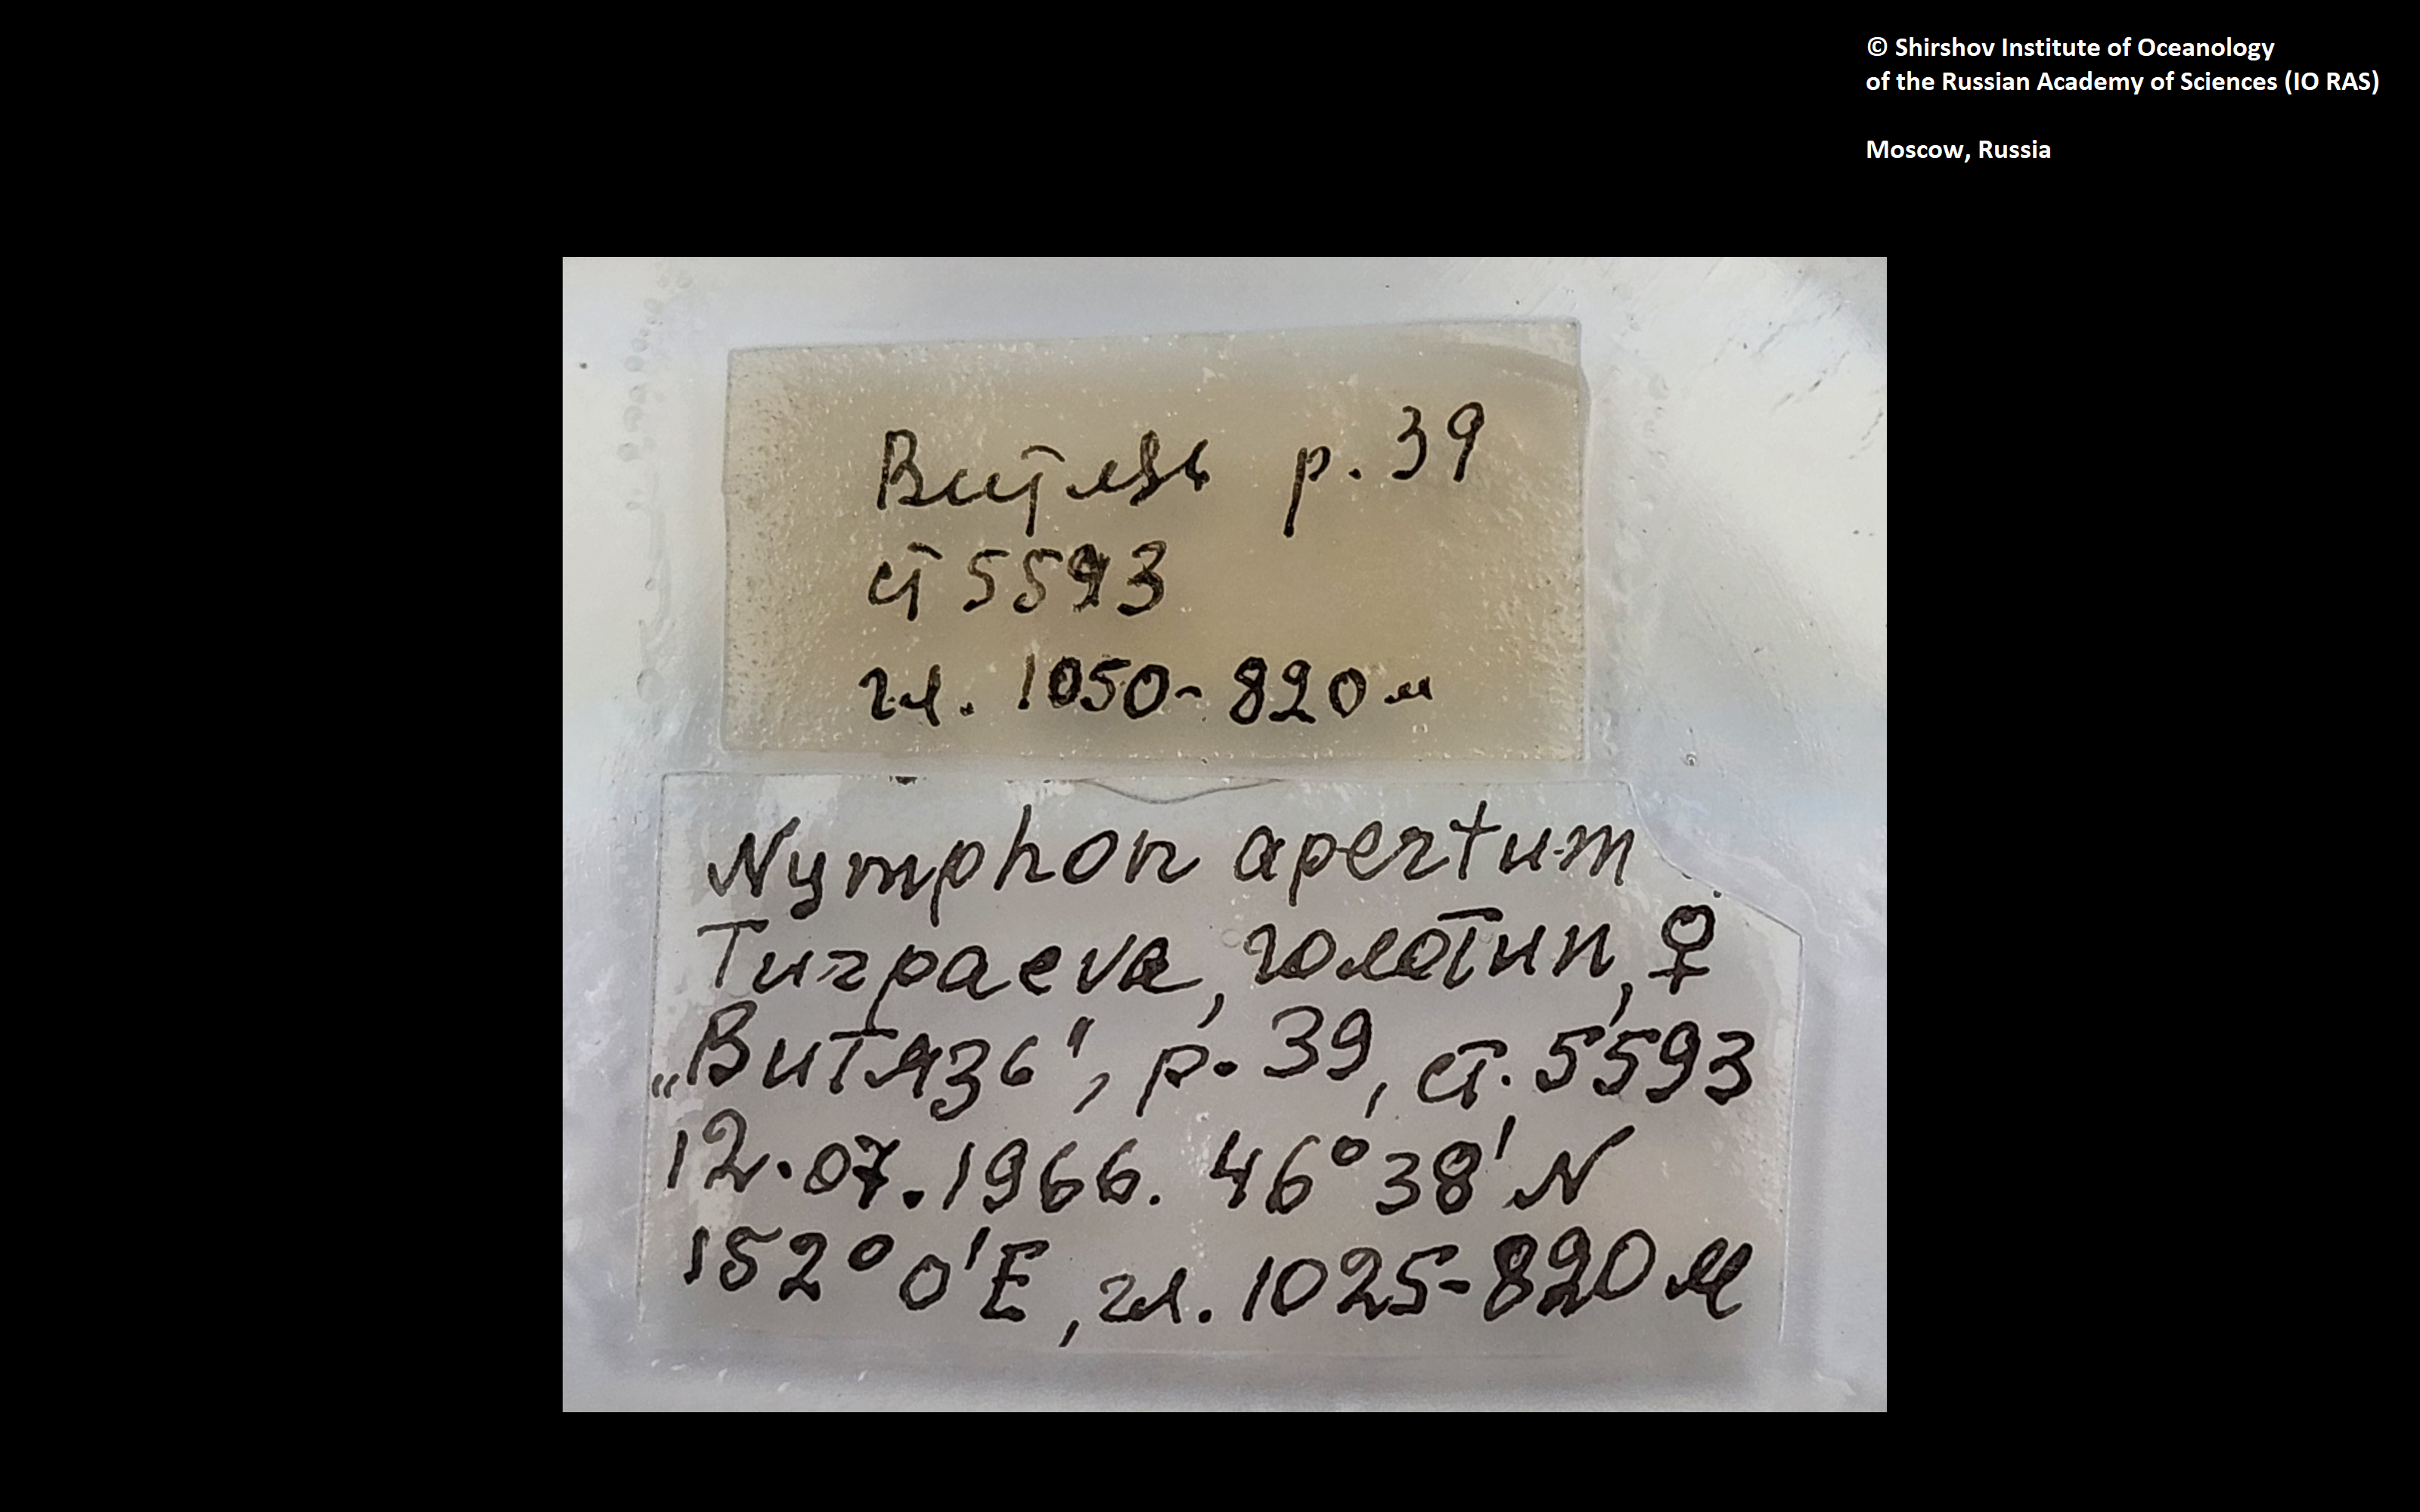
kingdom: Animalia
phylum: Arthropoda
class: Pycnogonida
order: Pantopoda
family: Nymphonidae
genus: Nymphon
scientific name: Nymphon apertum
